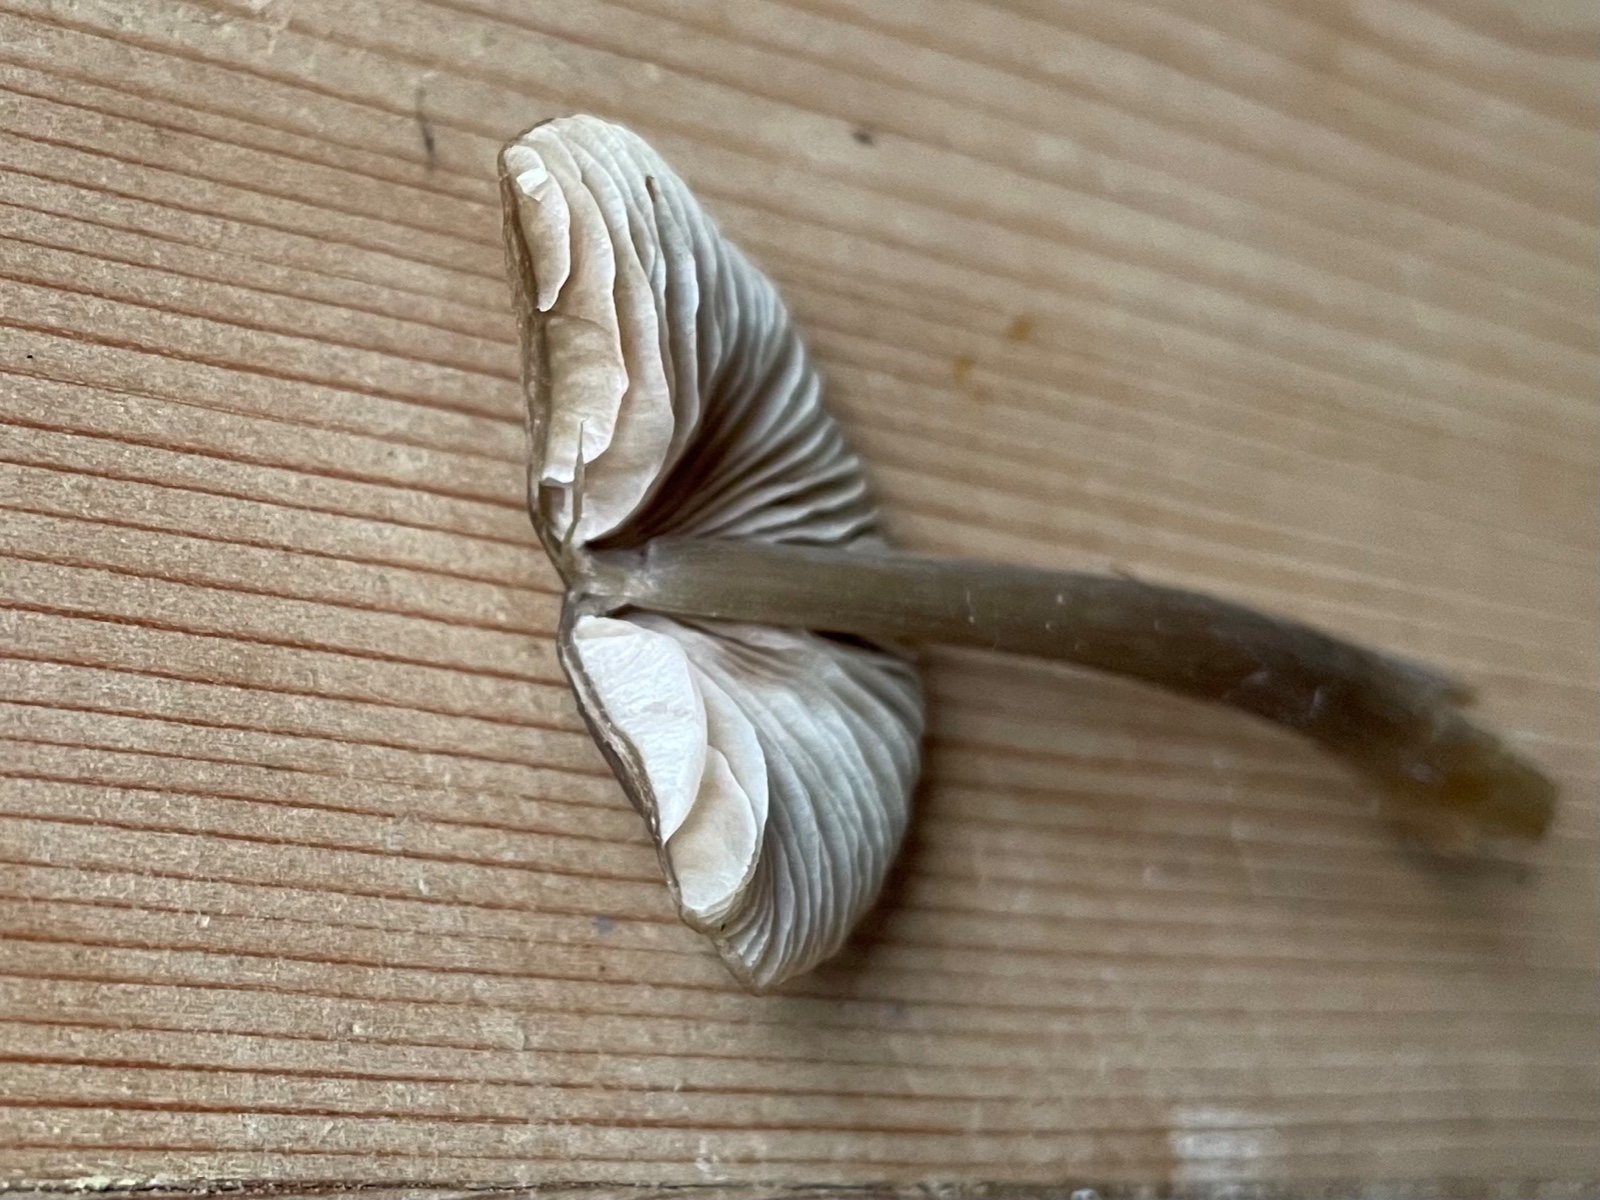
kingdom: Fungi
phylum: Basidiomycota
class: Agaricomycetes
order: Agaricales
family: Entolomataceae
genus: Entoloma
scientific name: Entoloma
